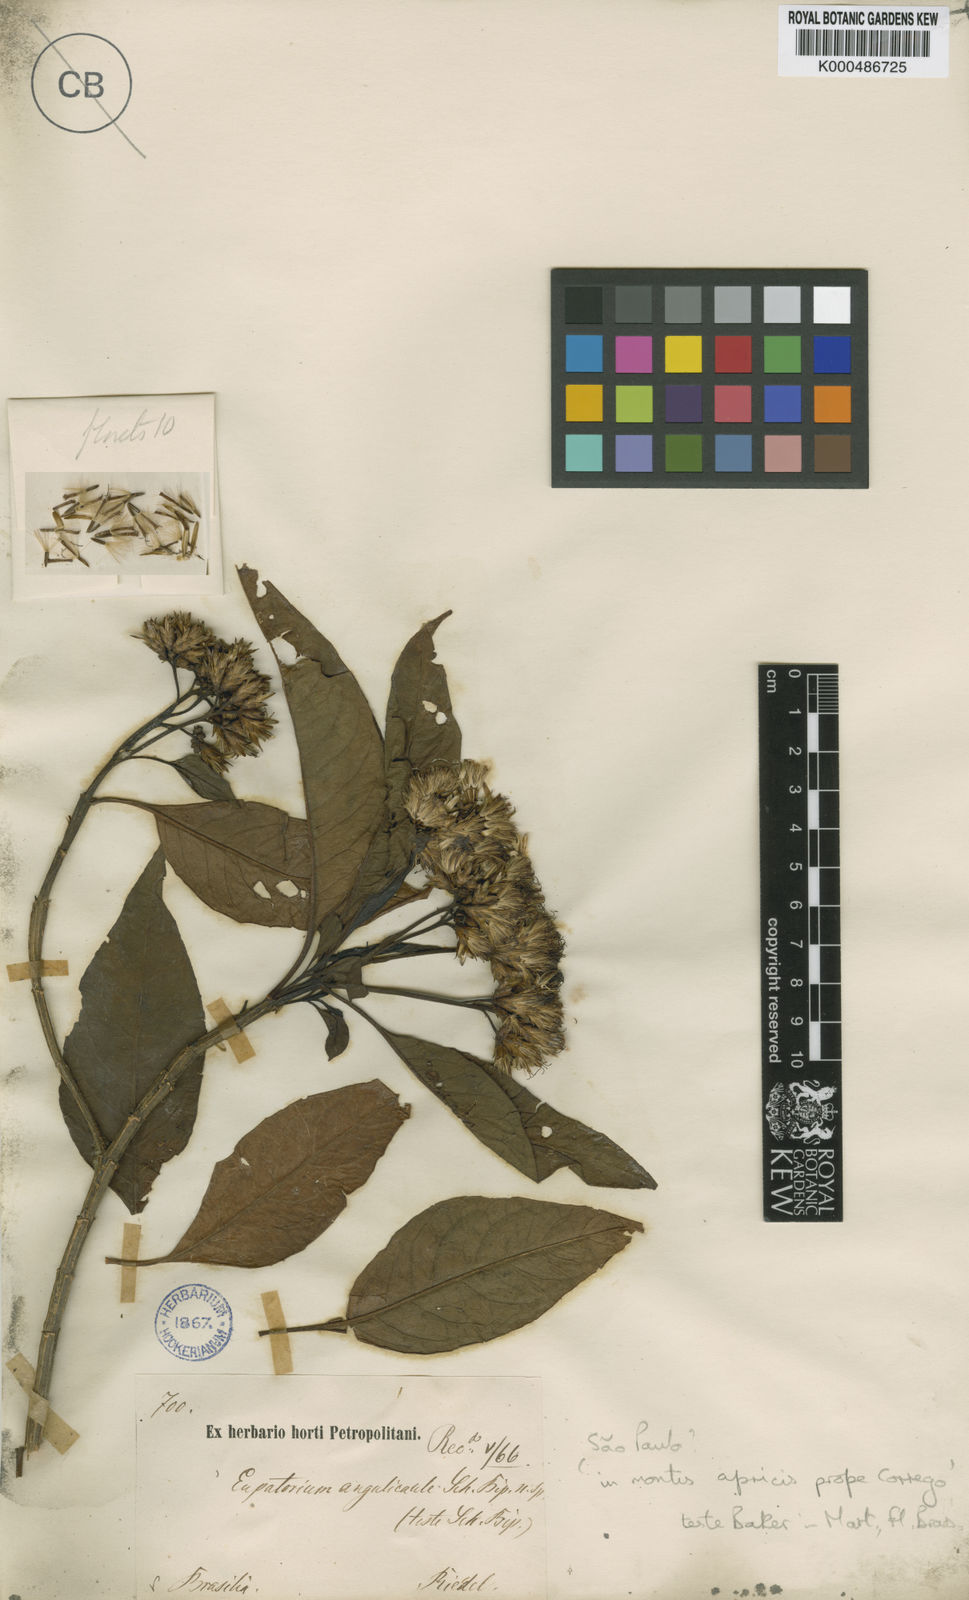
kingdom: Plantae
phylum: Tracheophyta
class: Magnoliopsida
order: Asterales
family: Asteraceae
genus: Austrocritonia
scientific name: Austrocritonia angulicaulis
